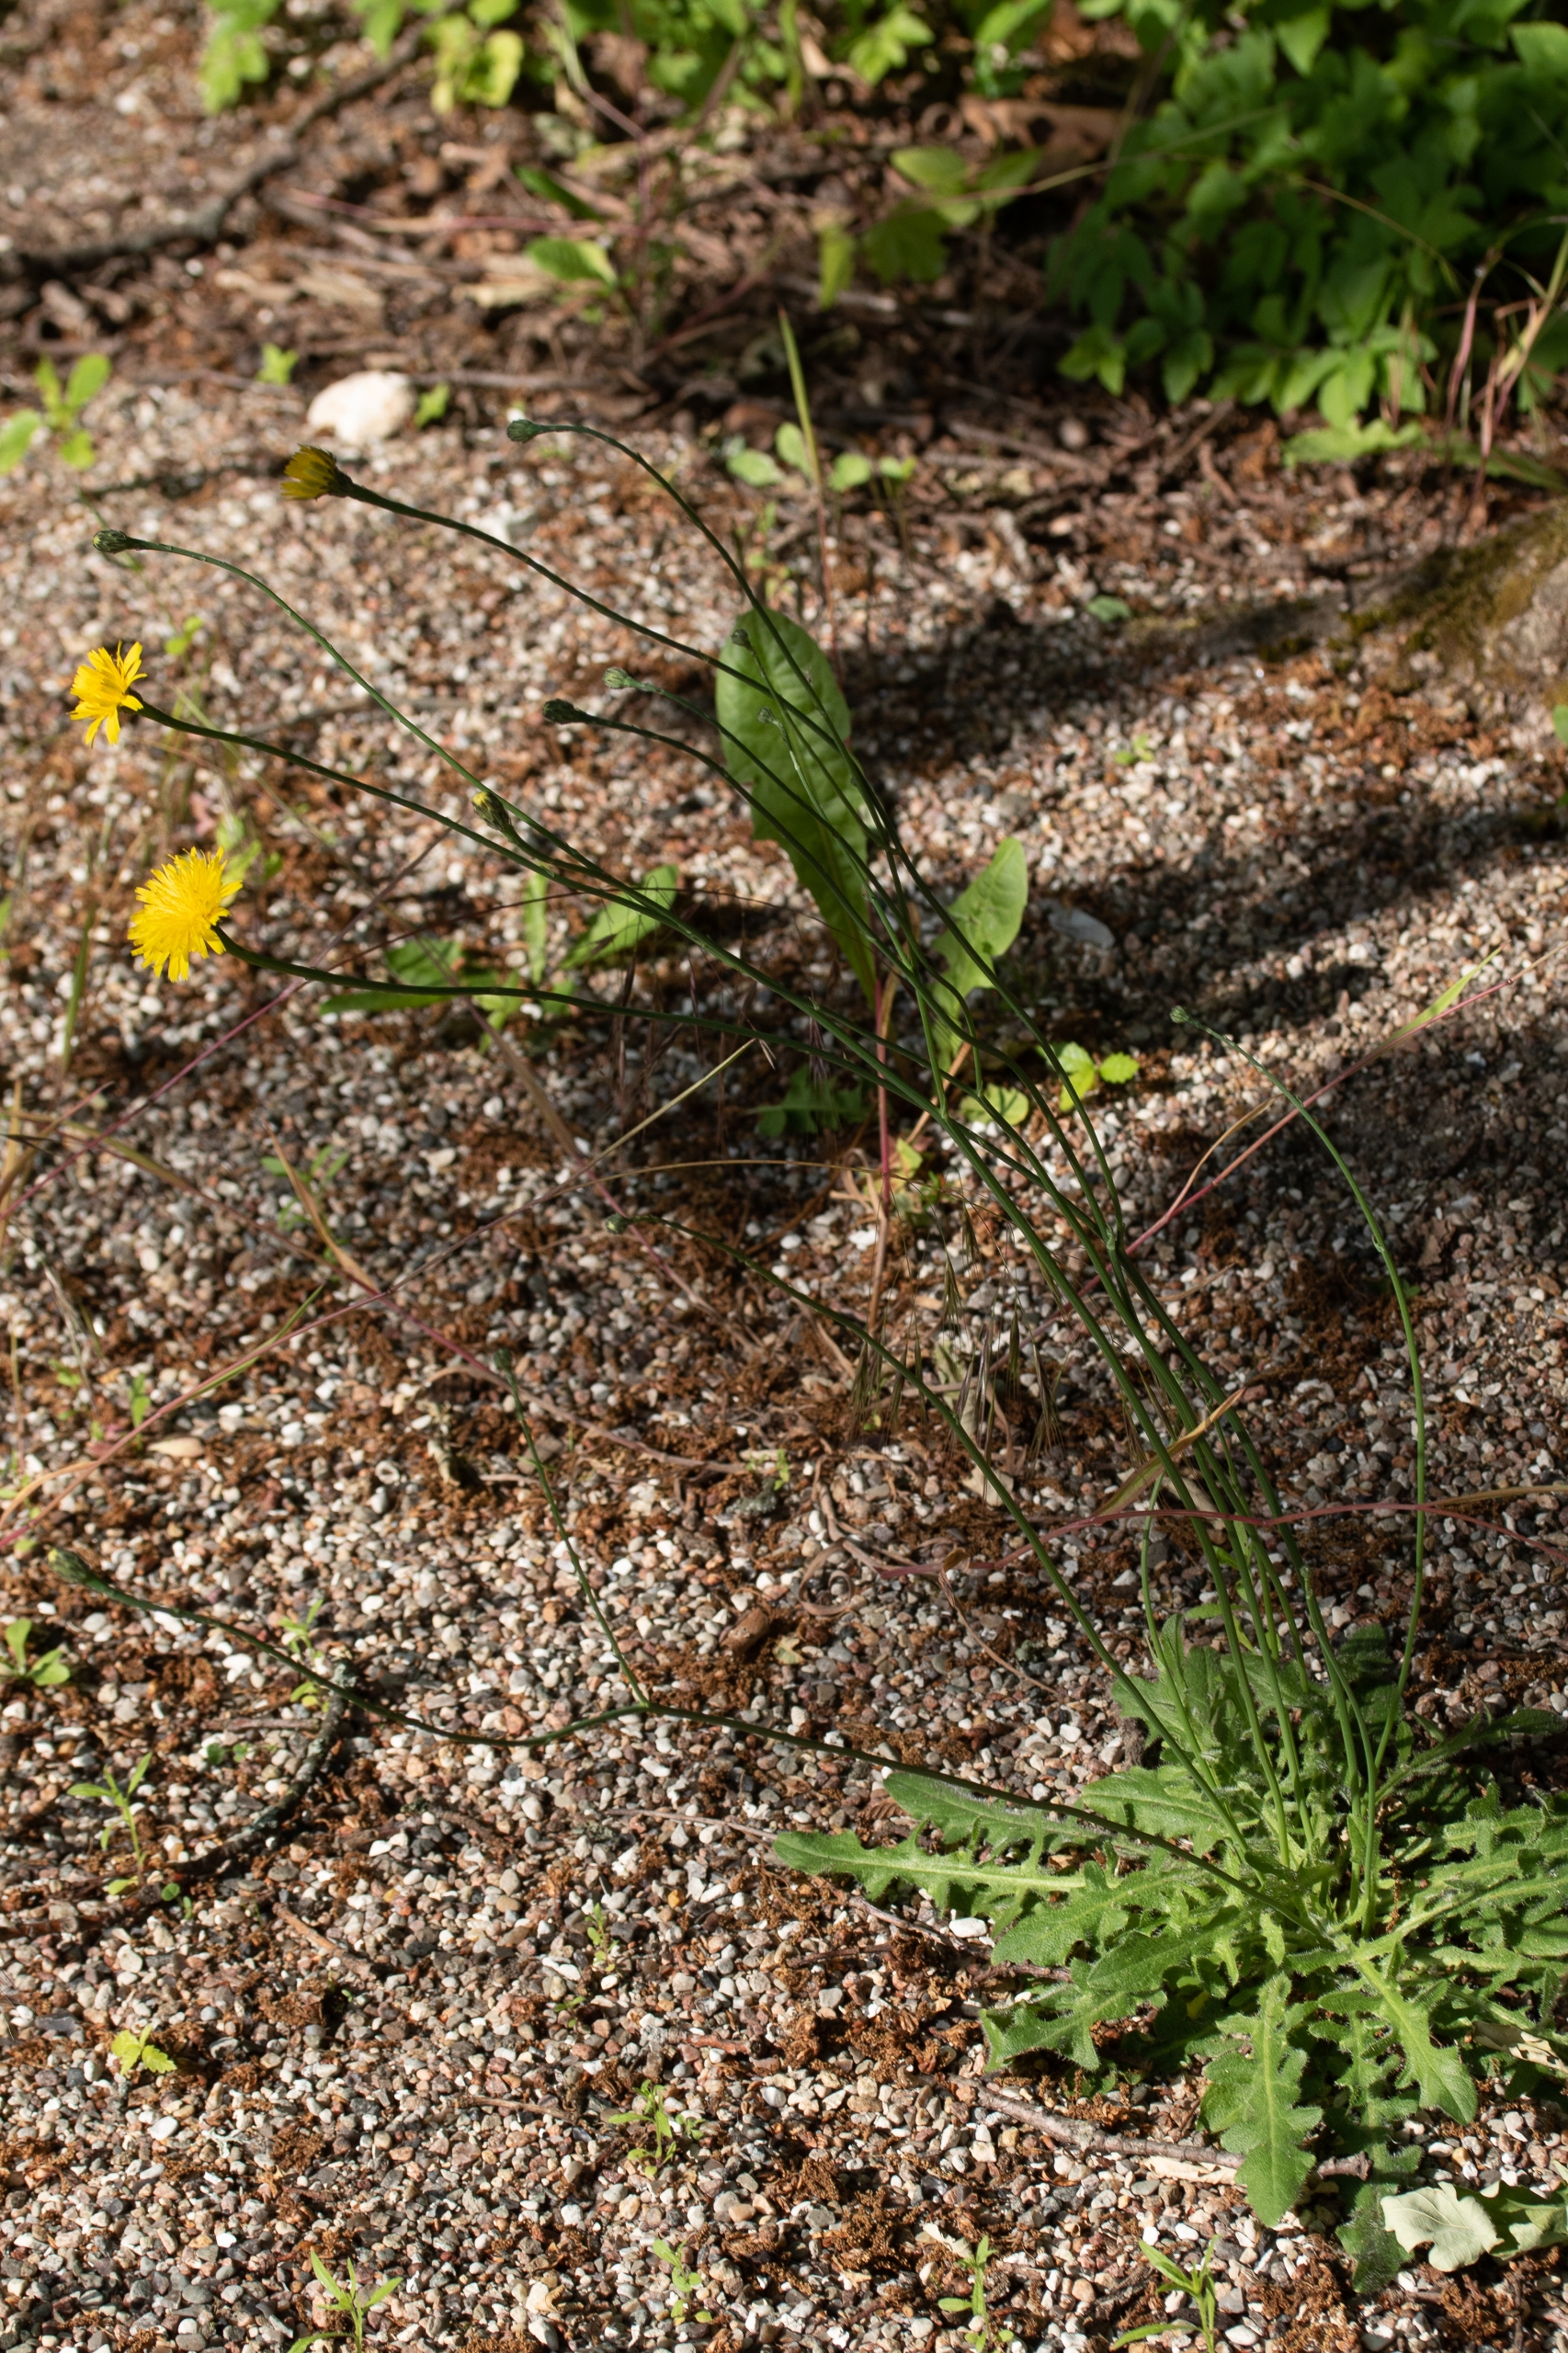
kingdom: Plantae
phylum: Tracheophyta
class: Magnoliopsida
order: Asterales
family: Asteraceae
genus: Hypochaeris
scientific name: Hypochaeris radicata
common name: Almindelig kongepen
